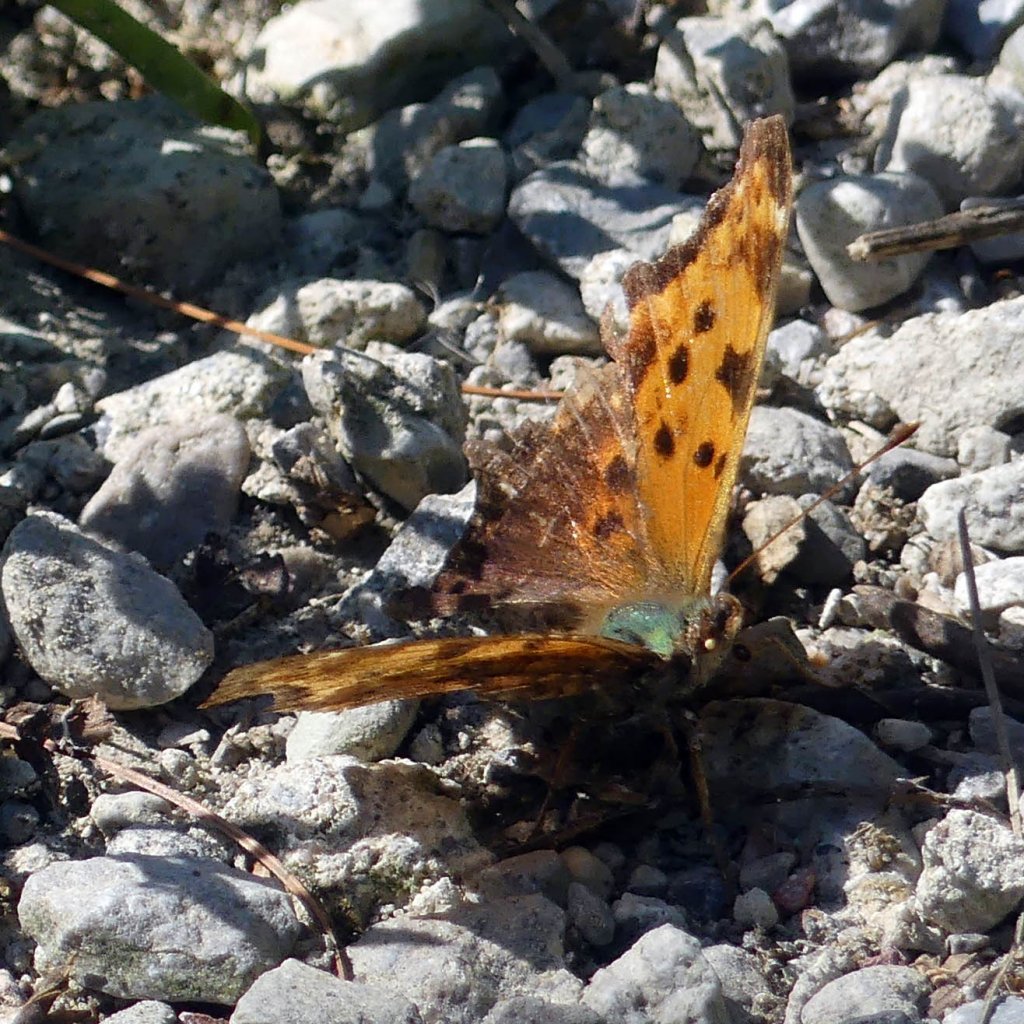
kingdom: Animalia
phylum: Arthropoda
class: Insecta
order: Lepidoptera
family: Nymphalidae
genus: Polygonia
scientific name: Polygonia comma
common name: Eastern Comma
